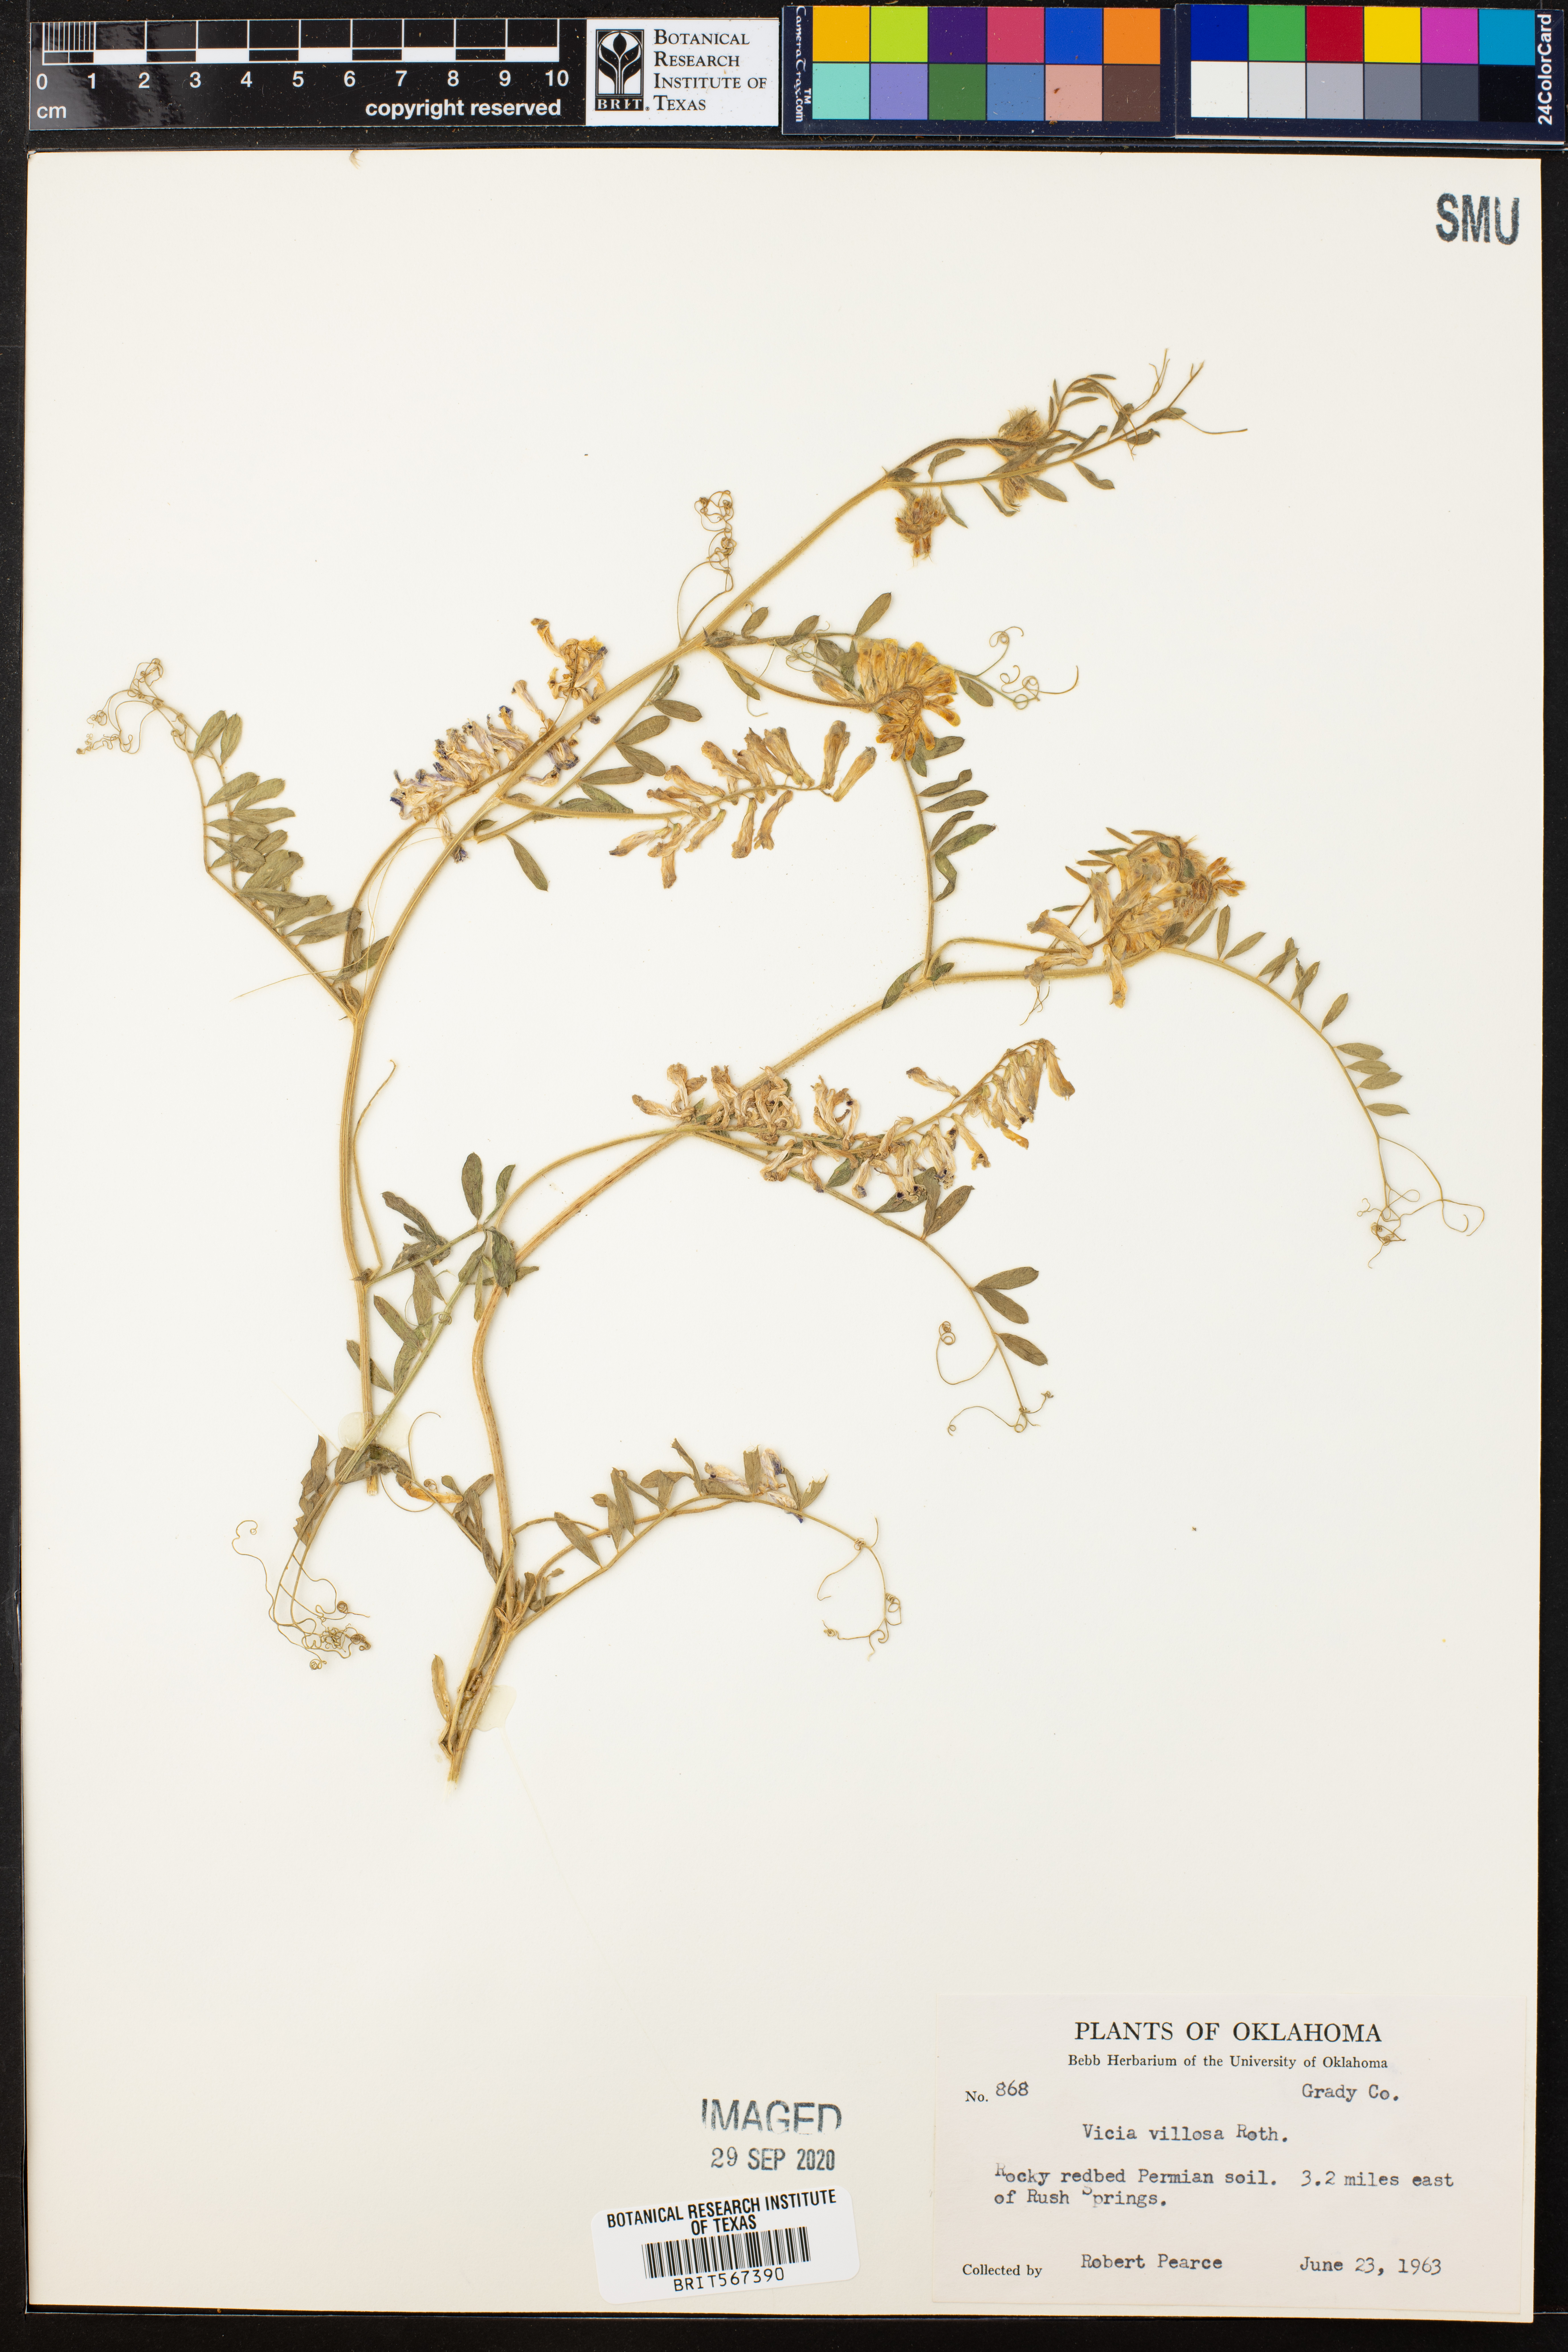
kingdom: Plantae
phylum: Tracheophyta
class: Magnoliopsida
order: Fabales
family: Fabaceae
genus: Vicia
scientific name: Vicia villosa
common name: Fodder vetch
